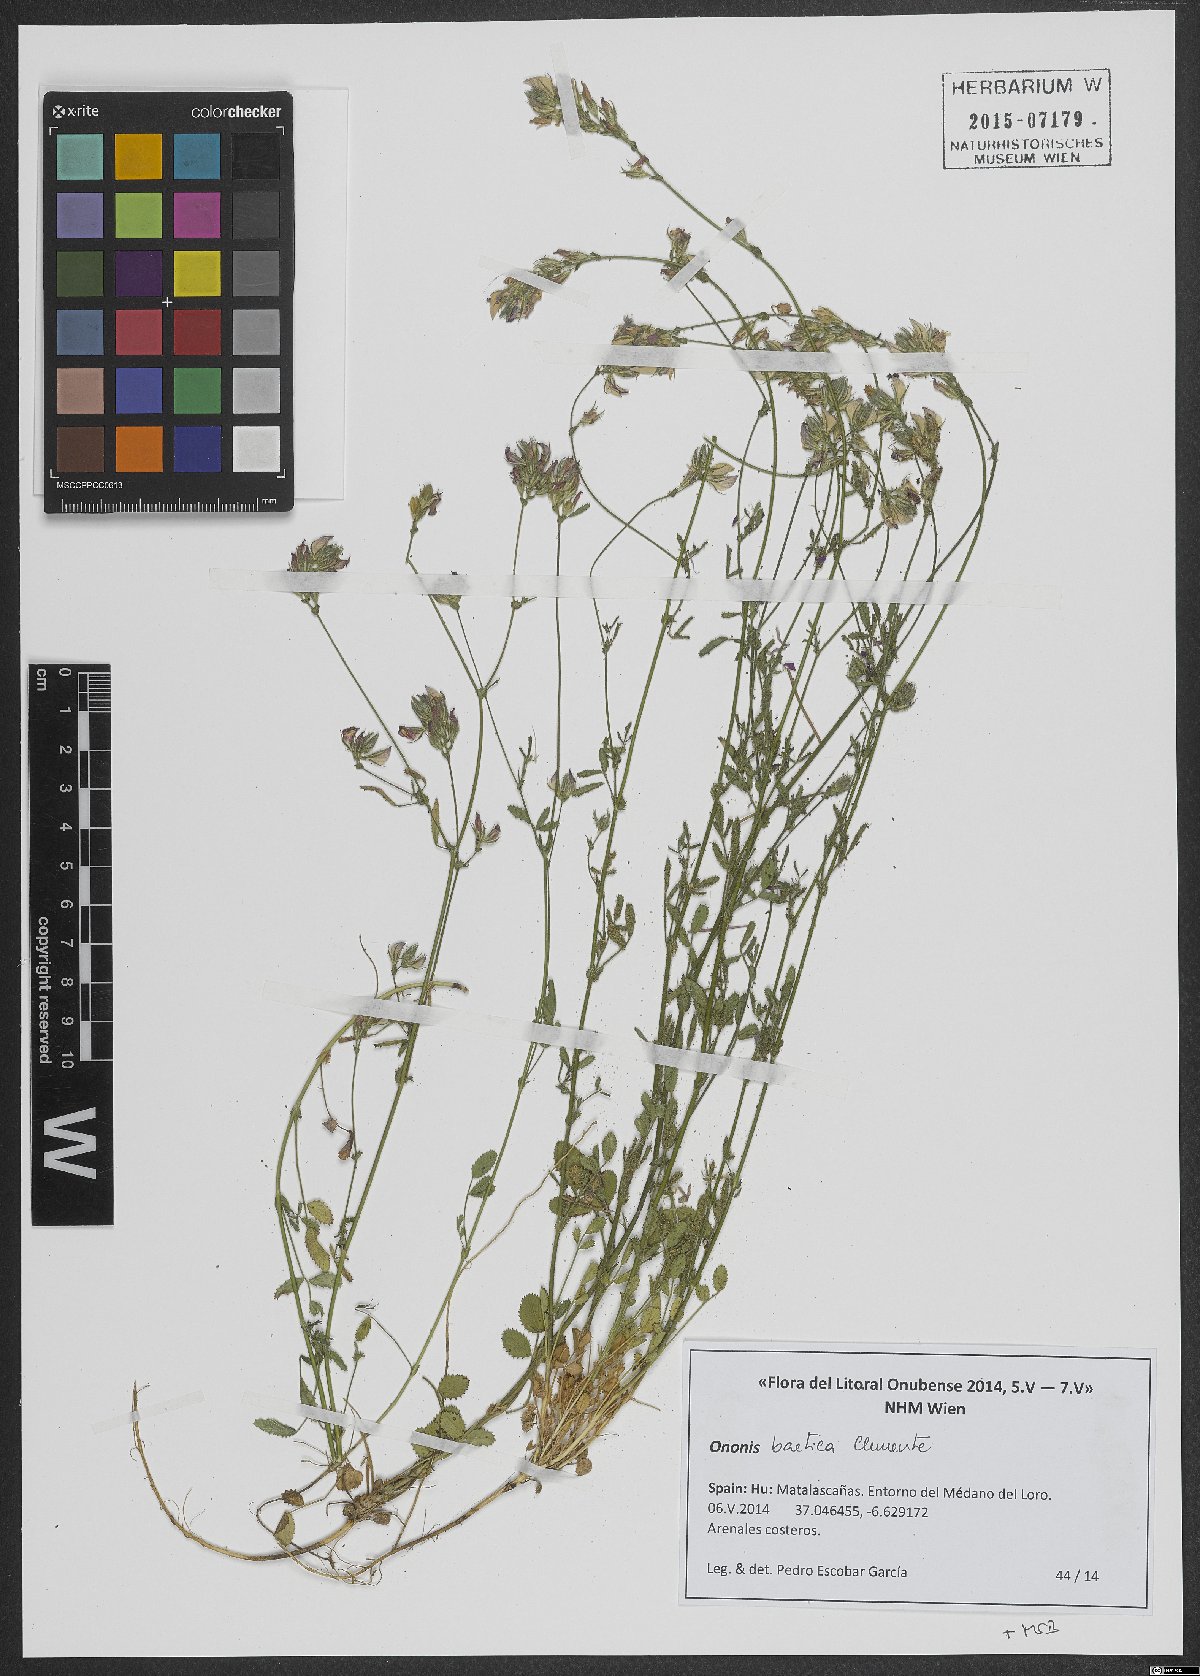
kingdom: Plantae
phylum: Tracheophyta
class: Magnoliopsida
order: Fabales
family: Fabaceae
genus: Ononis
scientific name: Ononis baetica
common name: Andalucian restharrow
